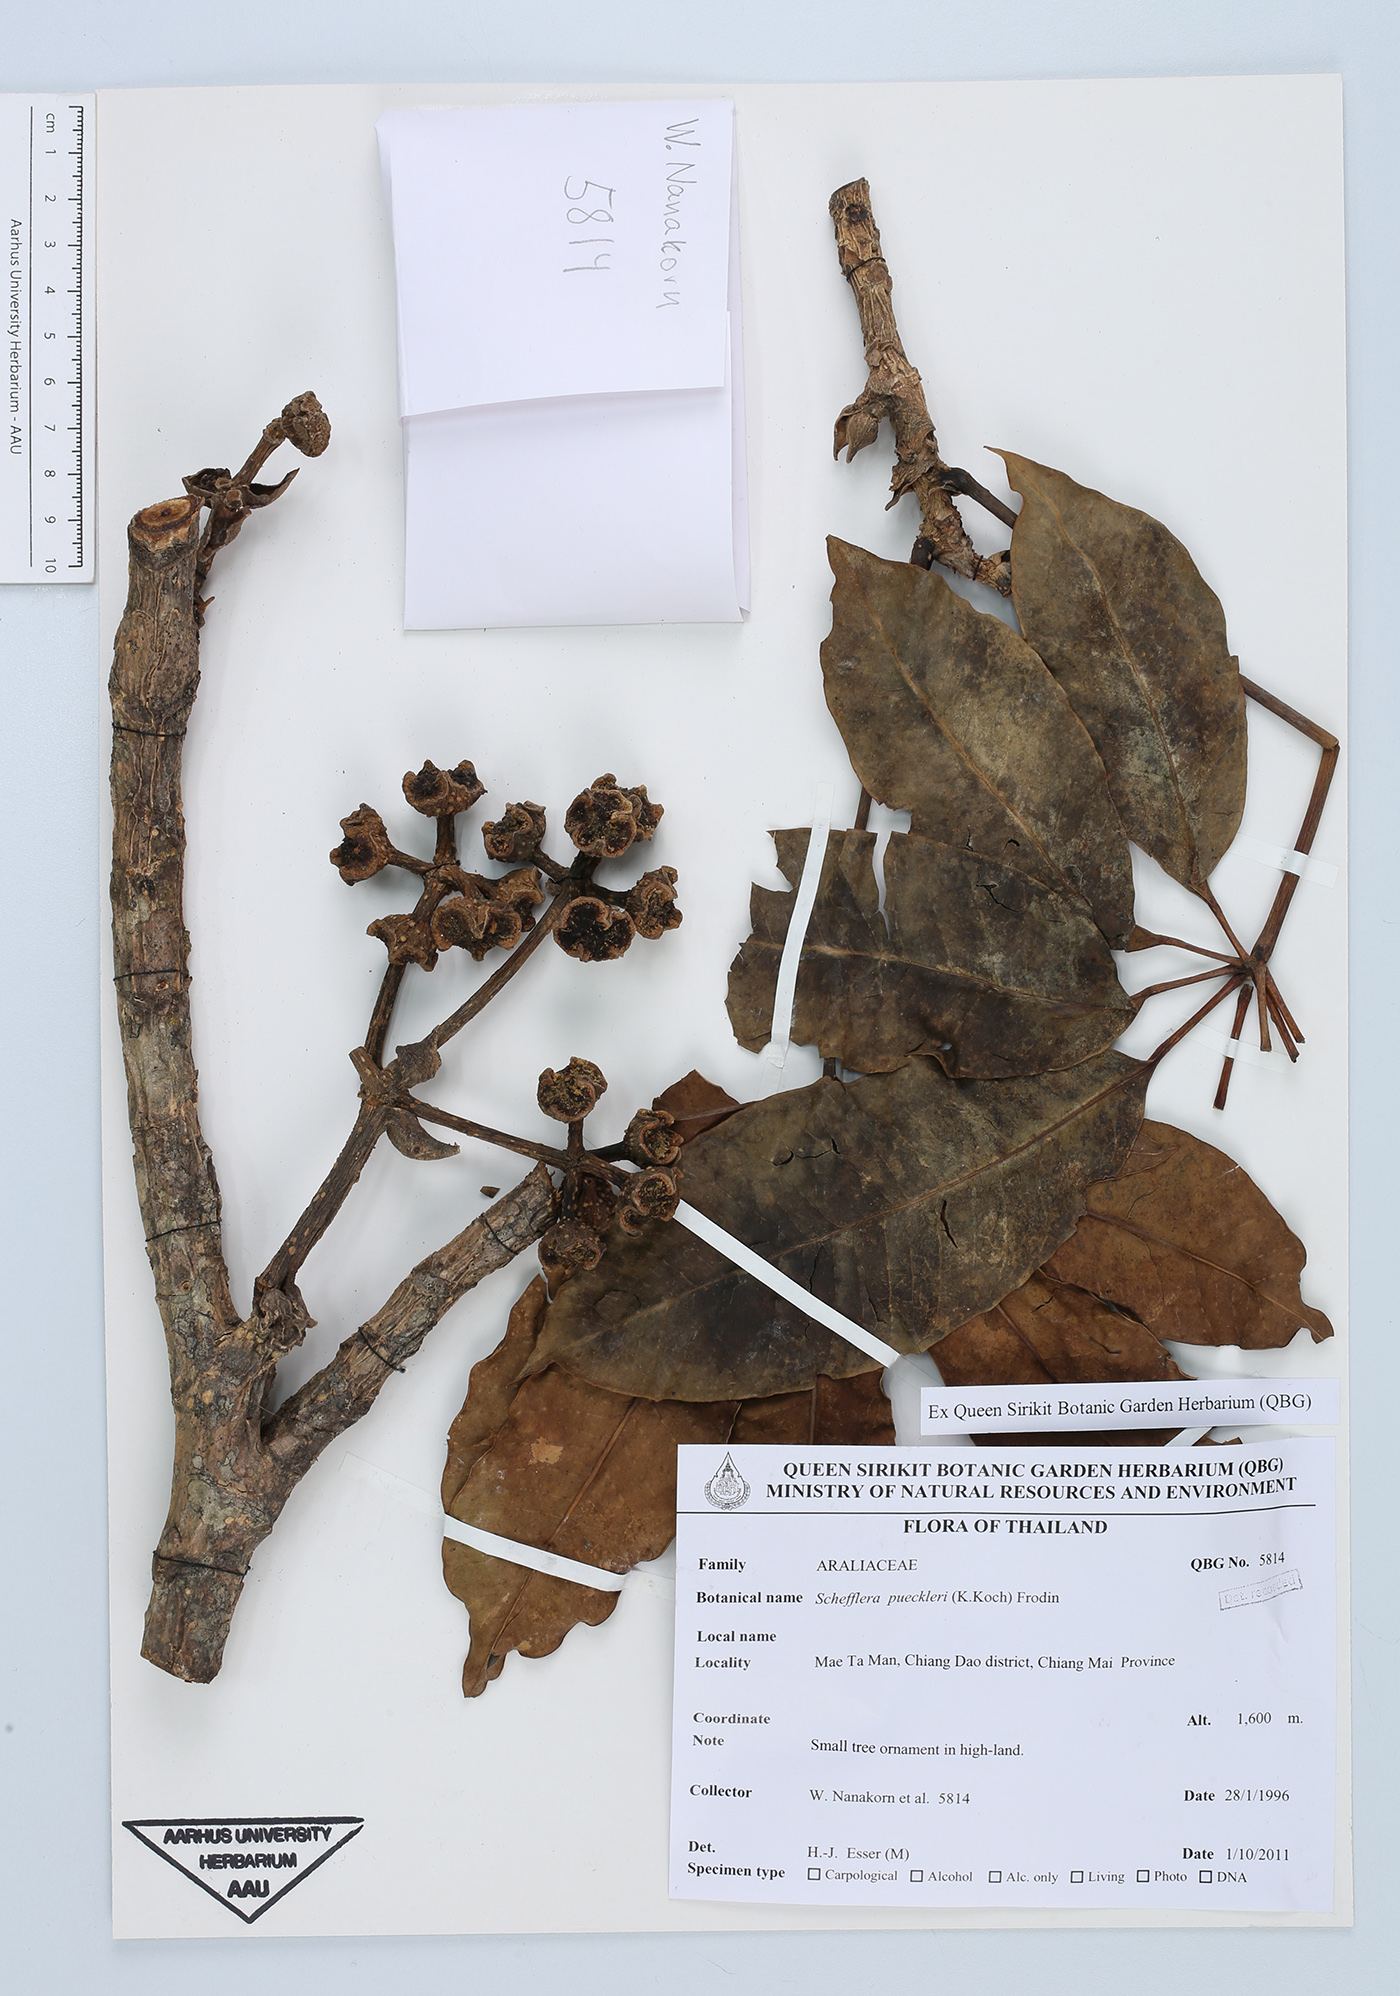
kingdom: Plantae
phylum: Tracheophyta
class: Magnoliopsida
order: Apiales
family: Araliaceae
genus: Heptapleurum
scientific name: Heptapleurum calyptratum
